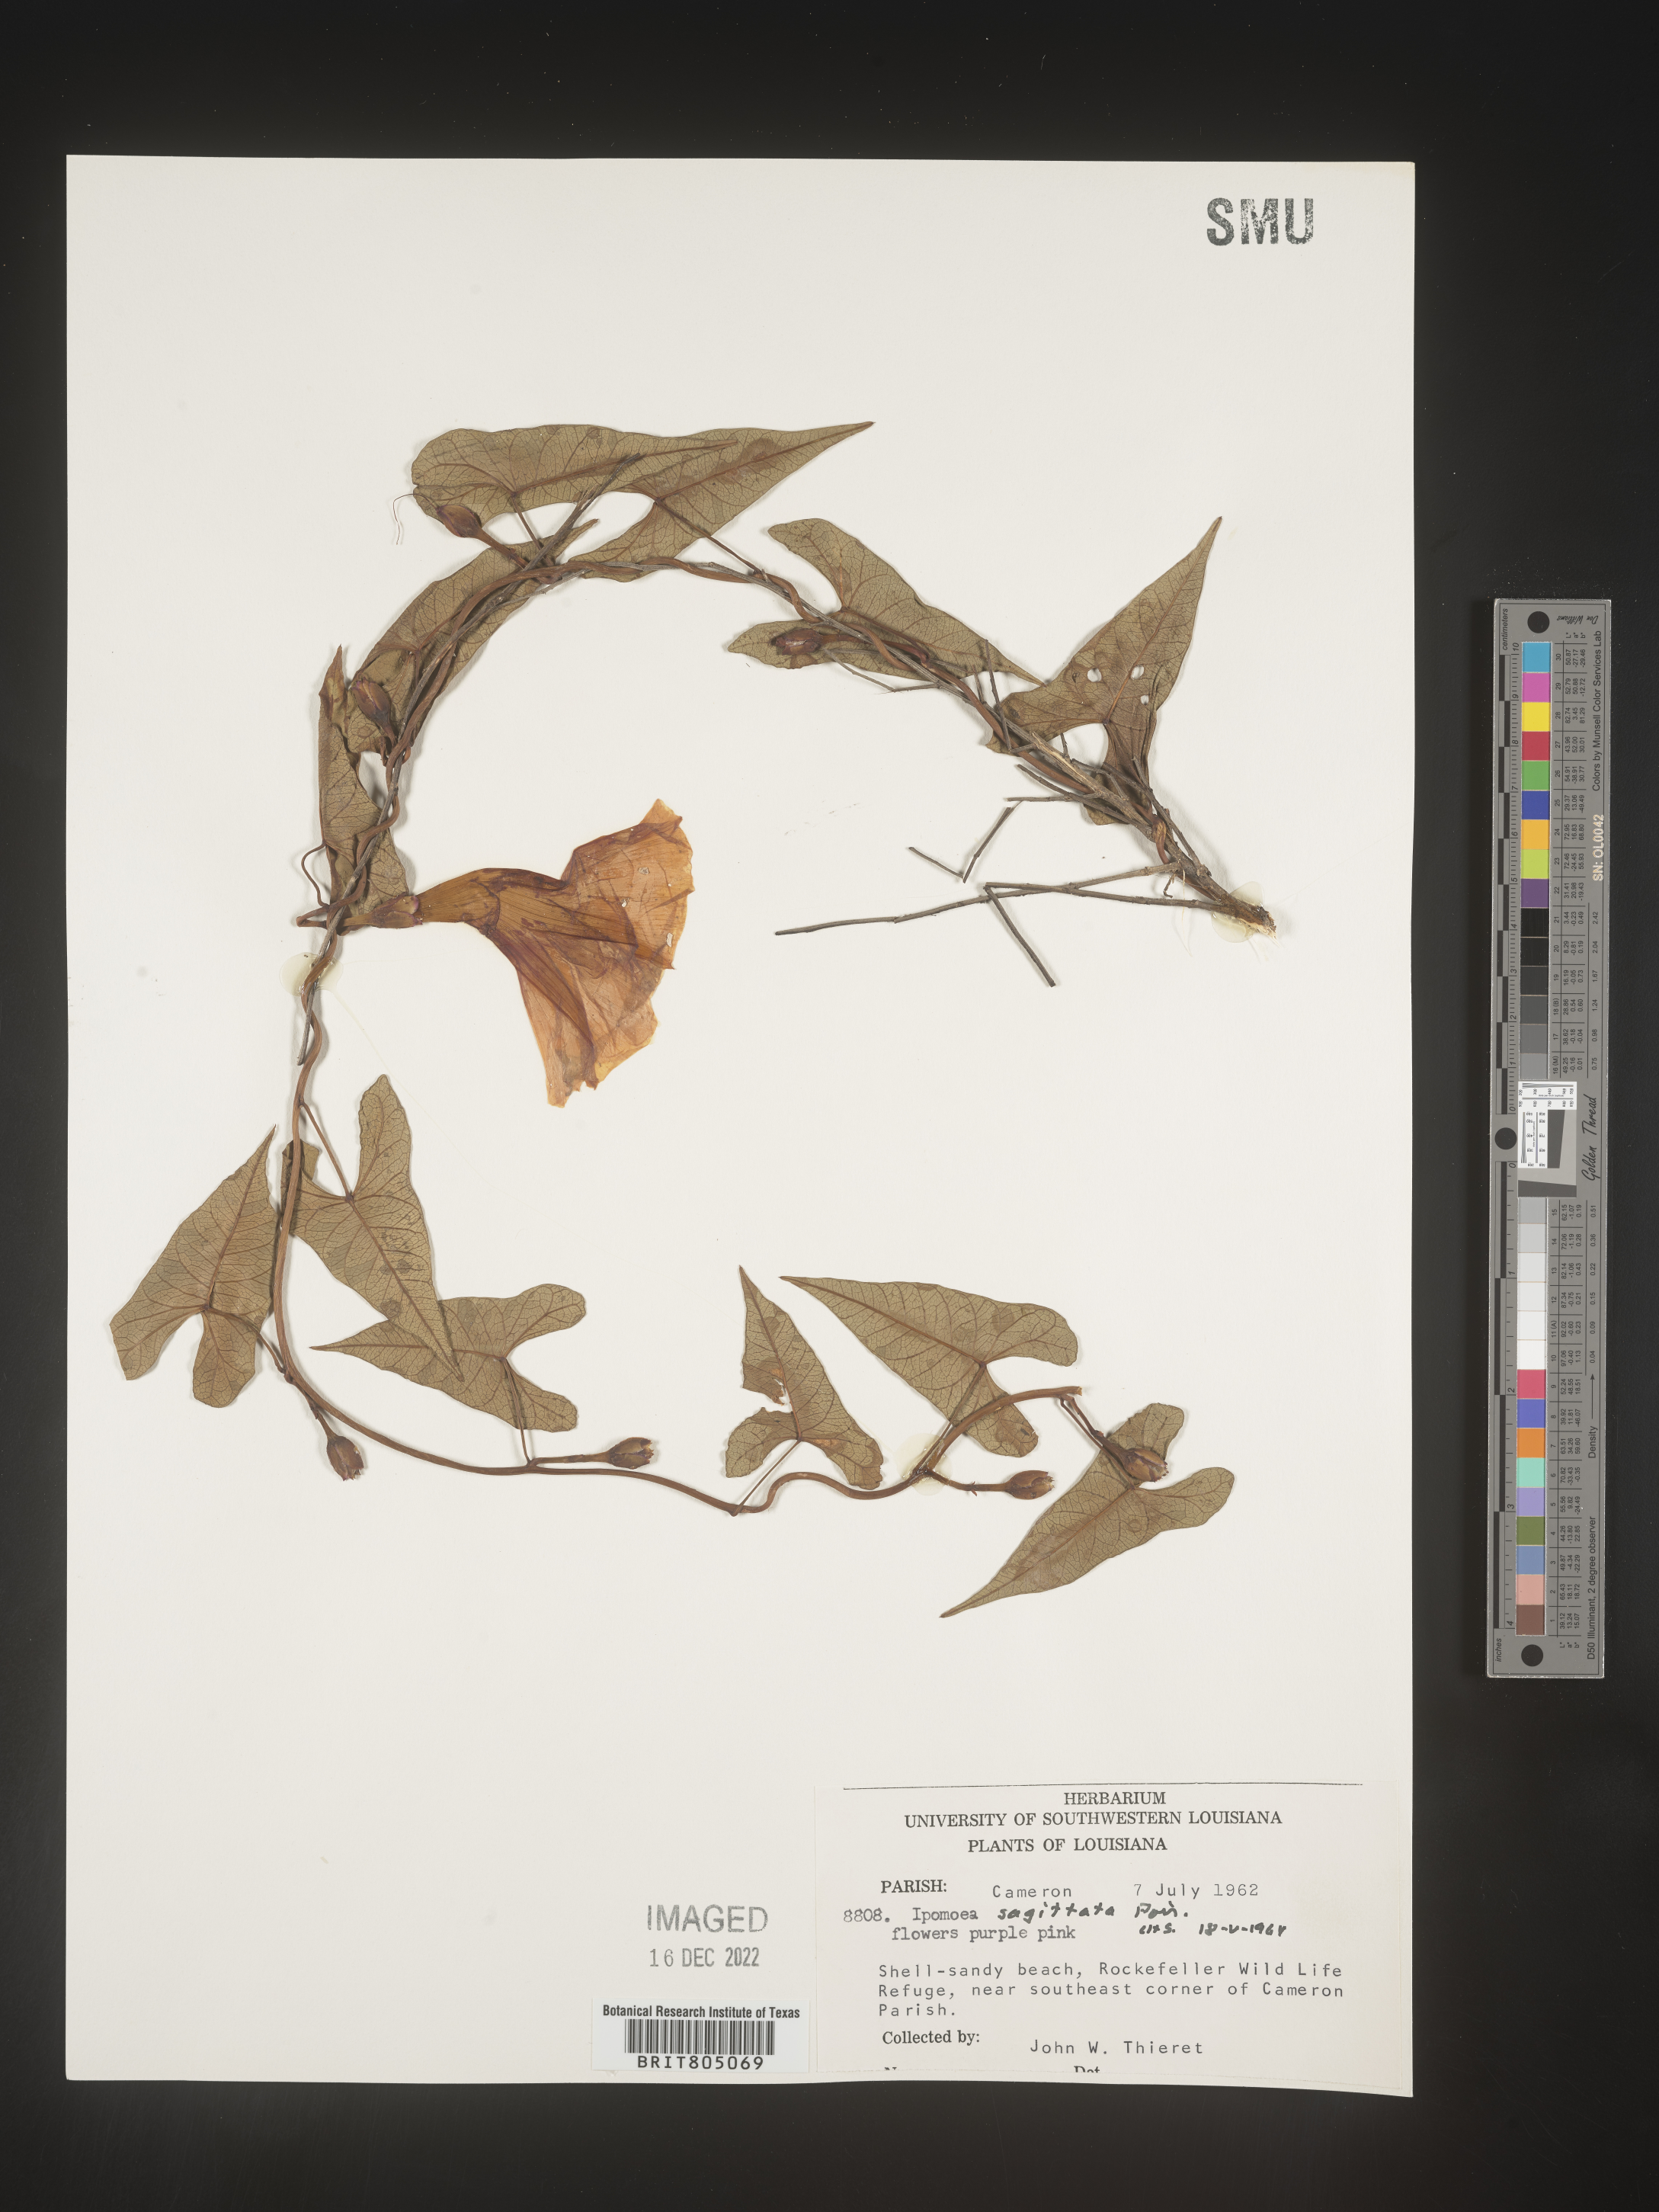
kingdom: Plantae
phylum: Tracheophyta
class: Magnoliopsida
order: Solanales
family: Convolvulaceae
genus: Ipomoea
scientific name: Ipomoea sinensis
